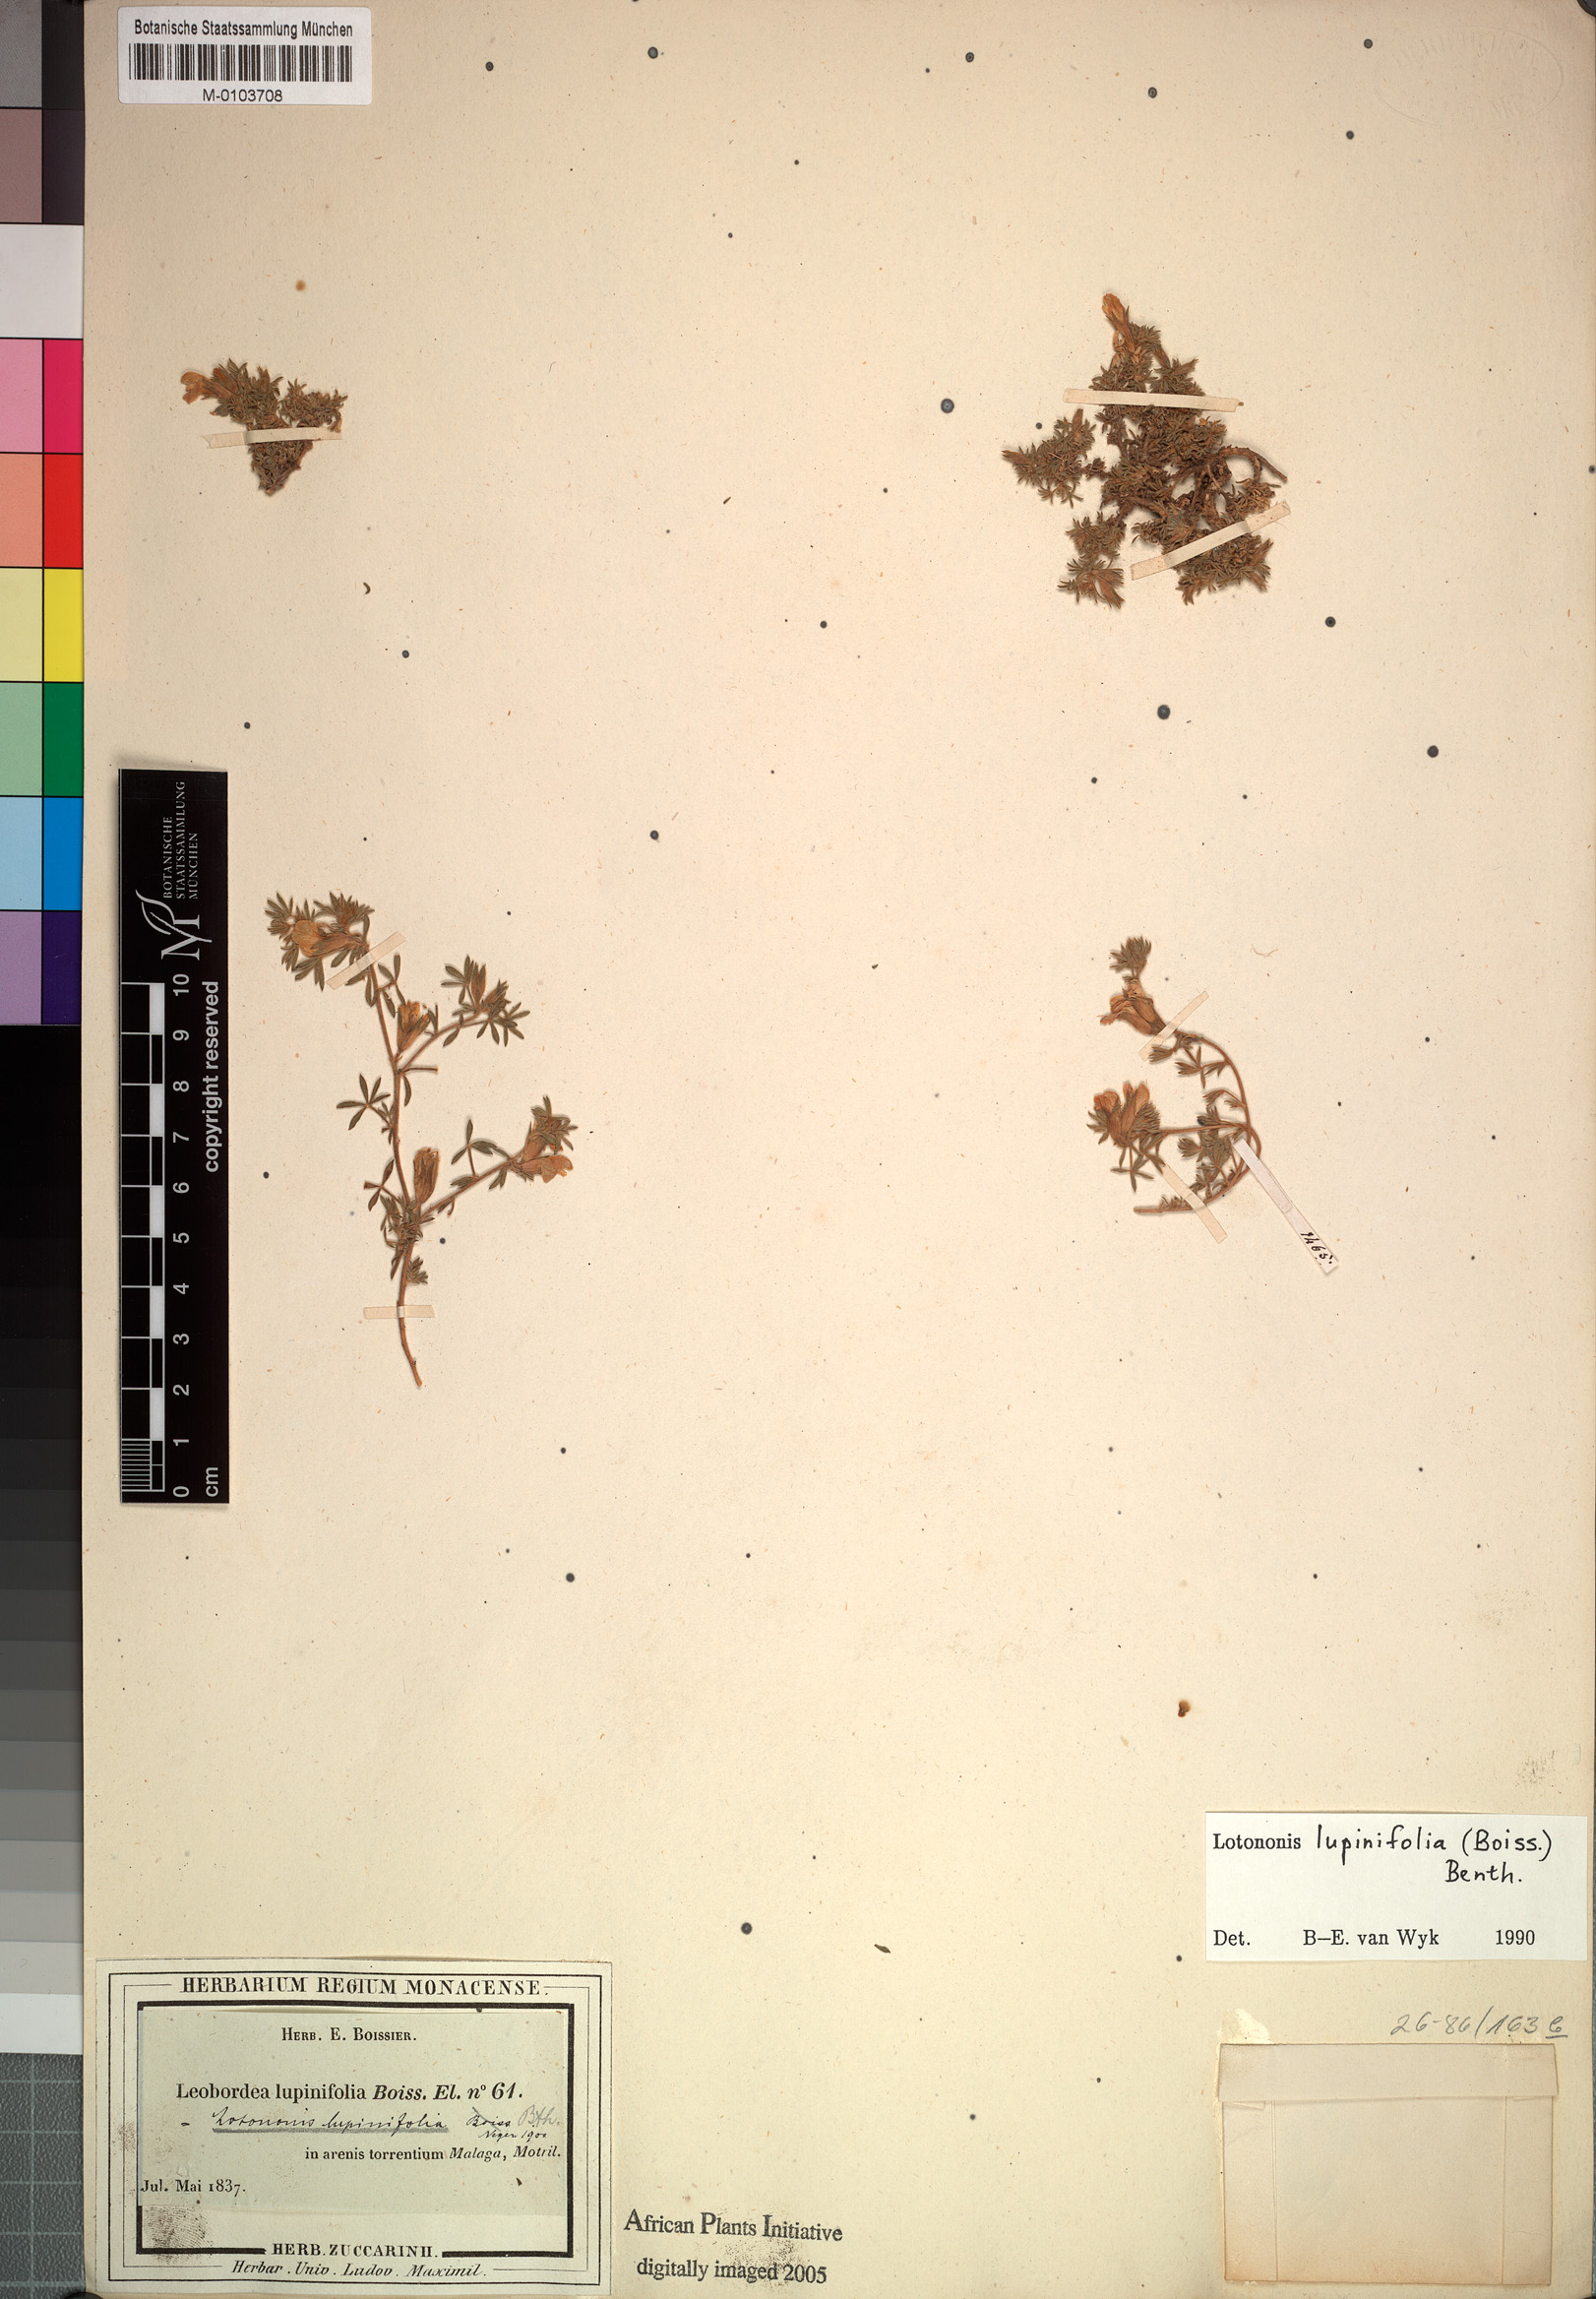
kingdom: Plantae
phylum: Tracheophyta
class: Magnoliopsida
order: Fabales
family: Fabaceae
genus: Leobordea
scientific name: Leobordea lupinifolia
